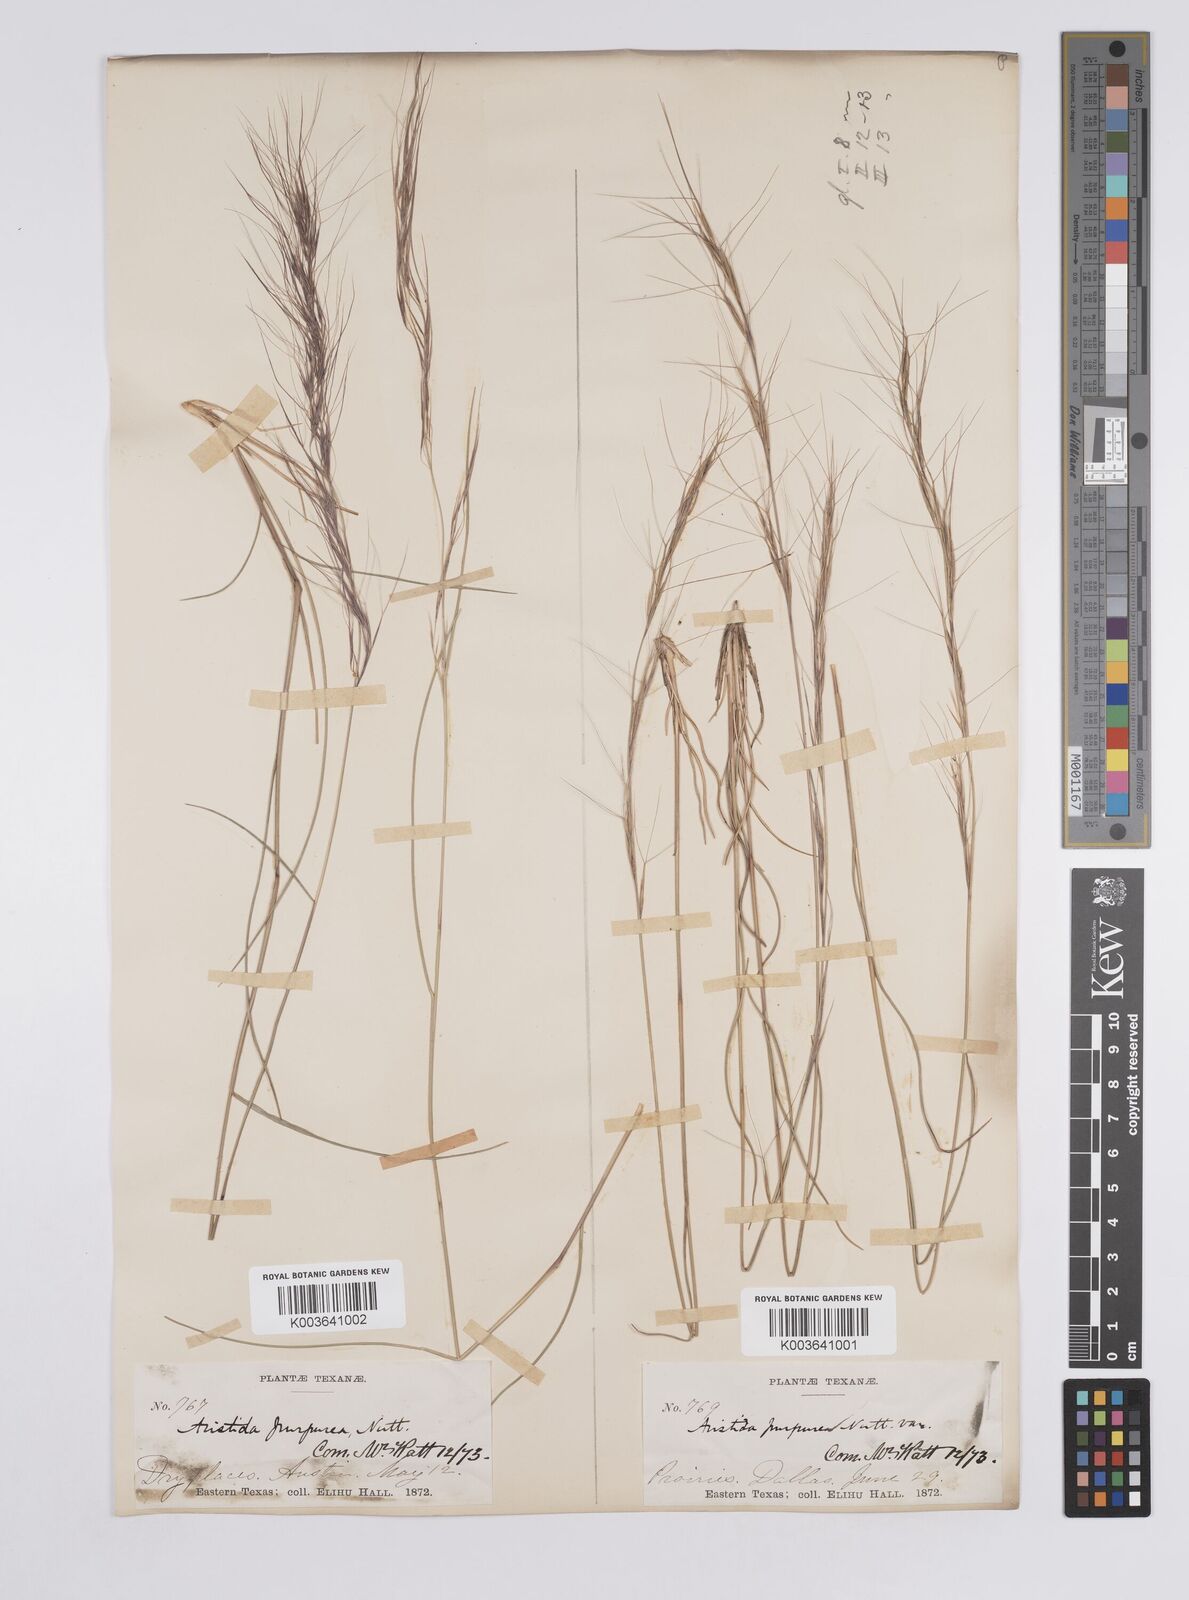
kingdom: Plantae
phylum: Tracheophyta
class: Liliopsida
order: Poales
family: Poaceae
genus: Aristida
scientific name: Aristida purpurea
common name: Purple threeawn
